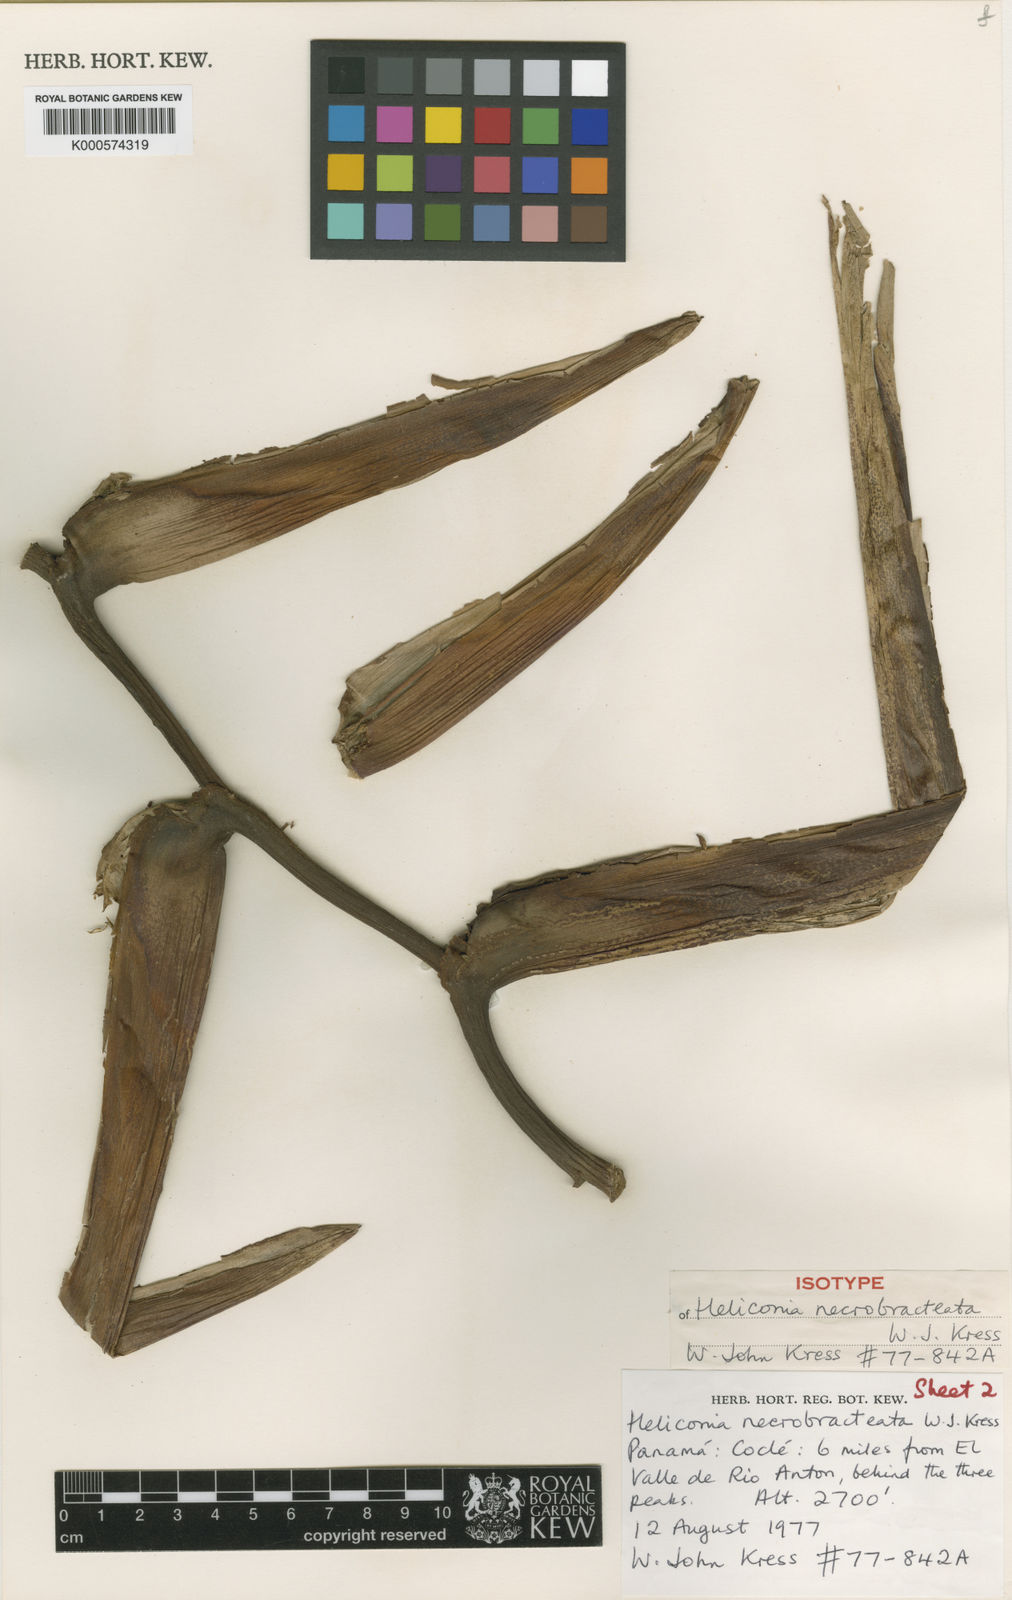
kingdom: Plantae
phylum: Tracheophyta
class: Liliopsida
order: Zingiberales
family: Heliconiaceae
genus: Heliconia
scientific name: Heliconia necrobracteata
